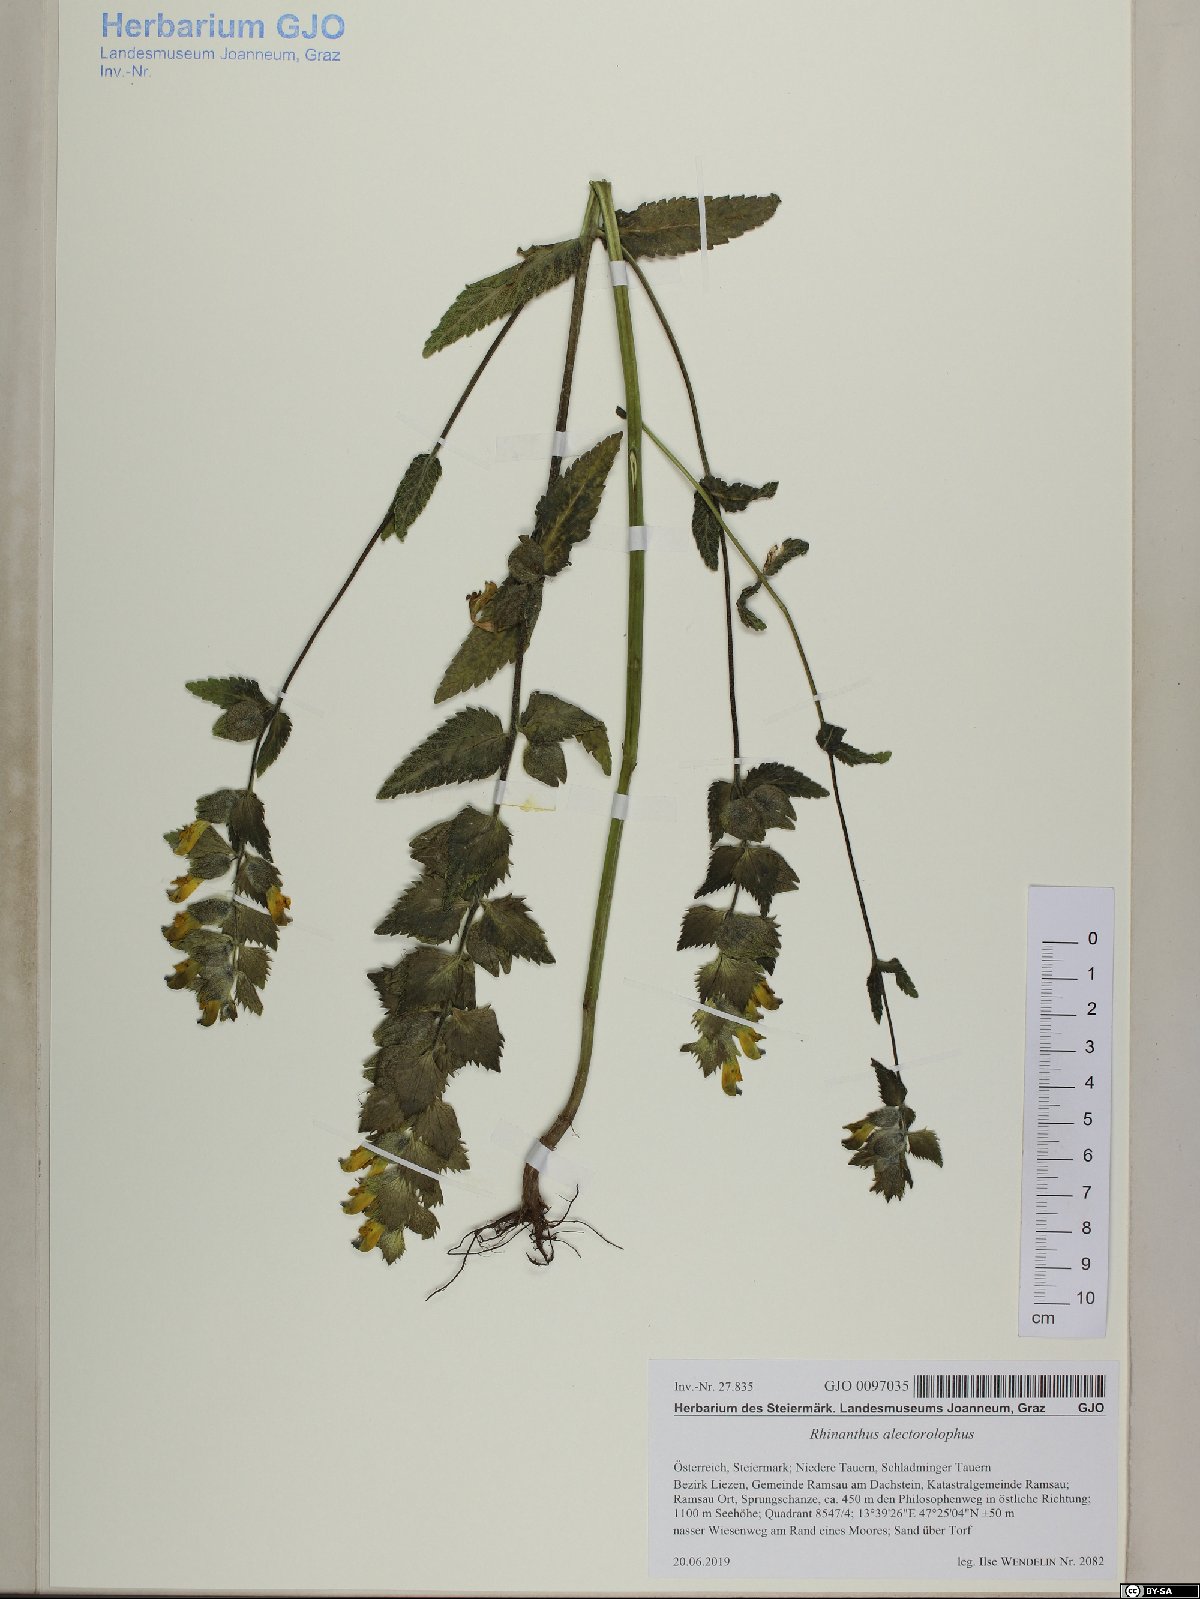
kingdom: Plantae
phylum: Tracheophyta
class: Magnoliopsida
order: Lamiales
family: Orobanchaceae
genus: Rhinanthus
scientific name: Rhinanthus alectorolophus
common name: Greater yellow-rattle
